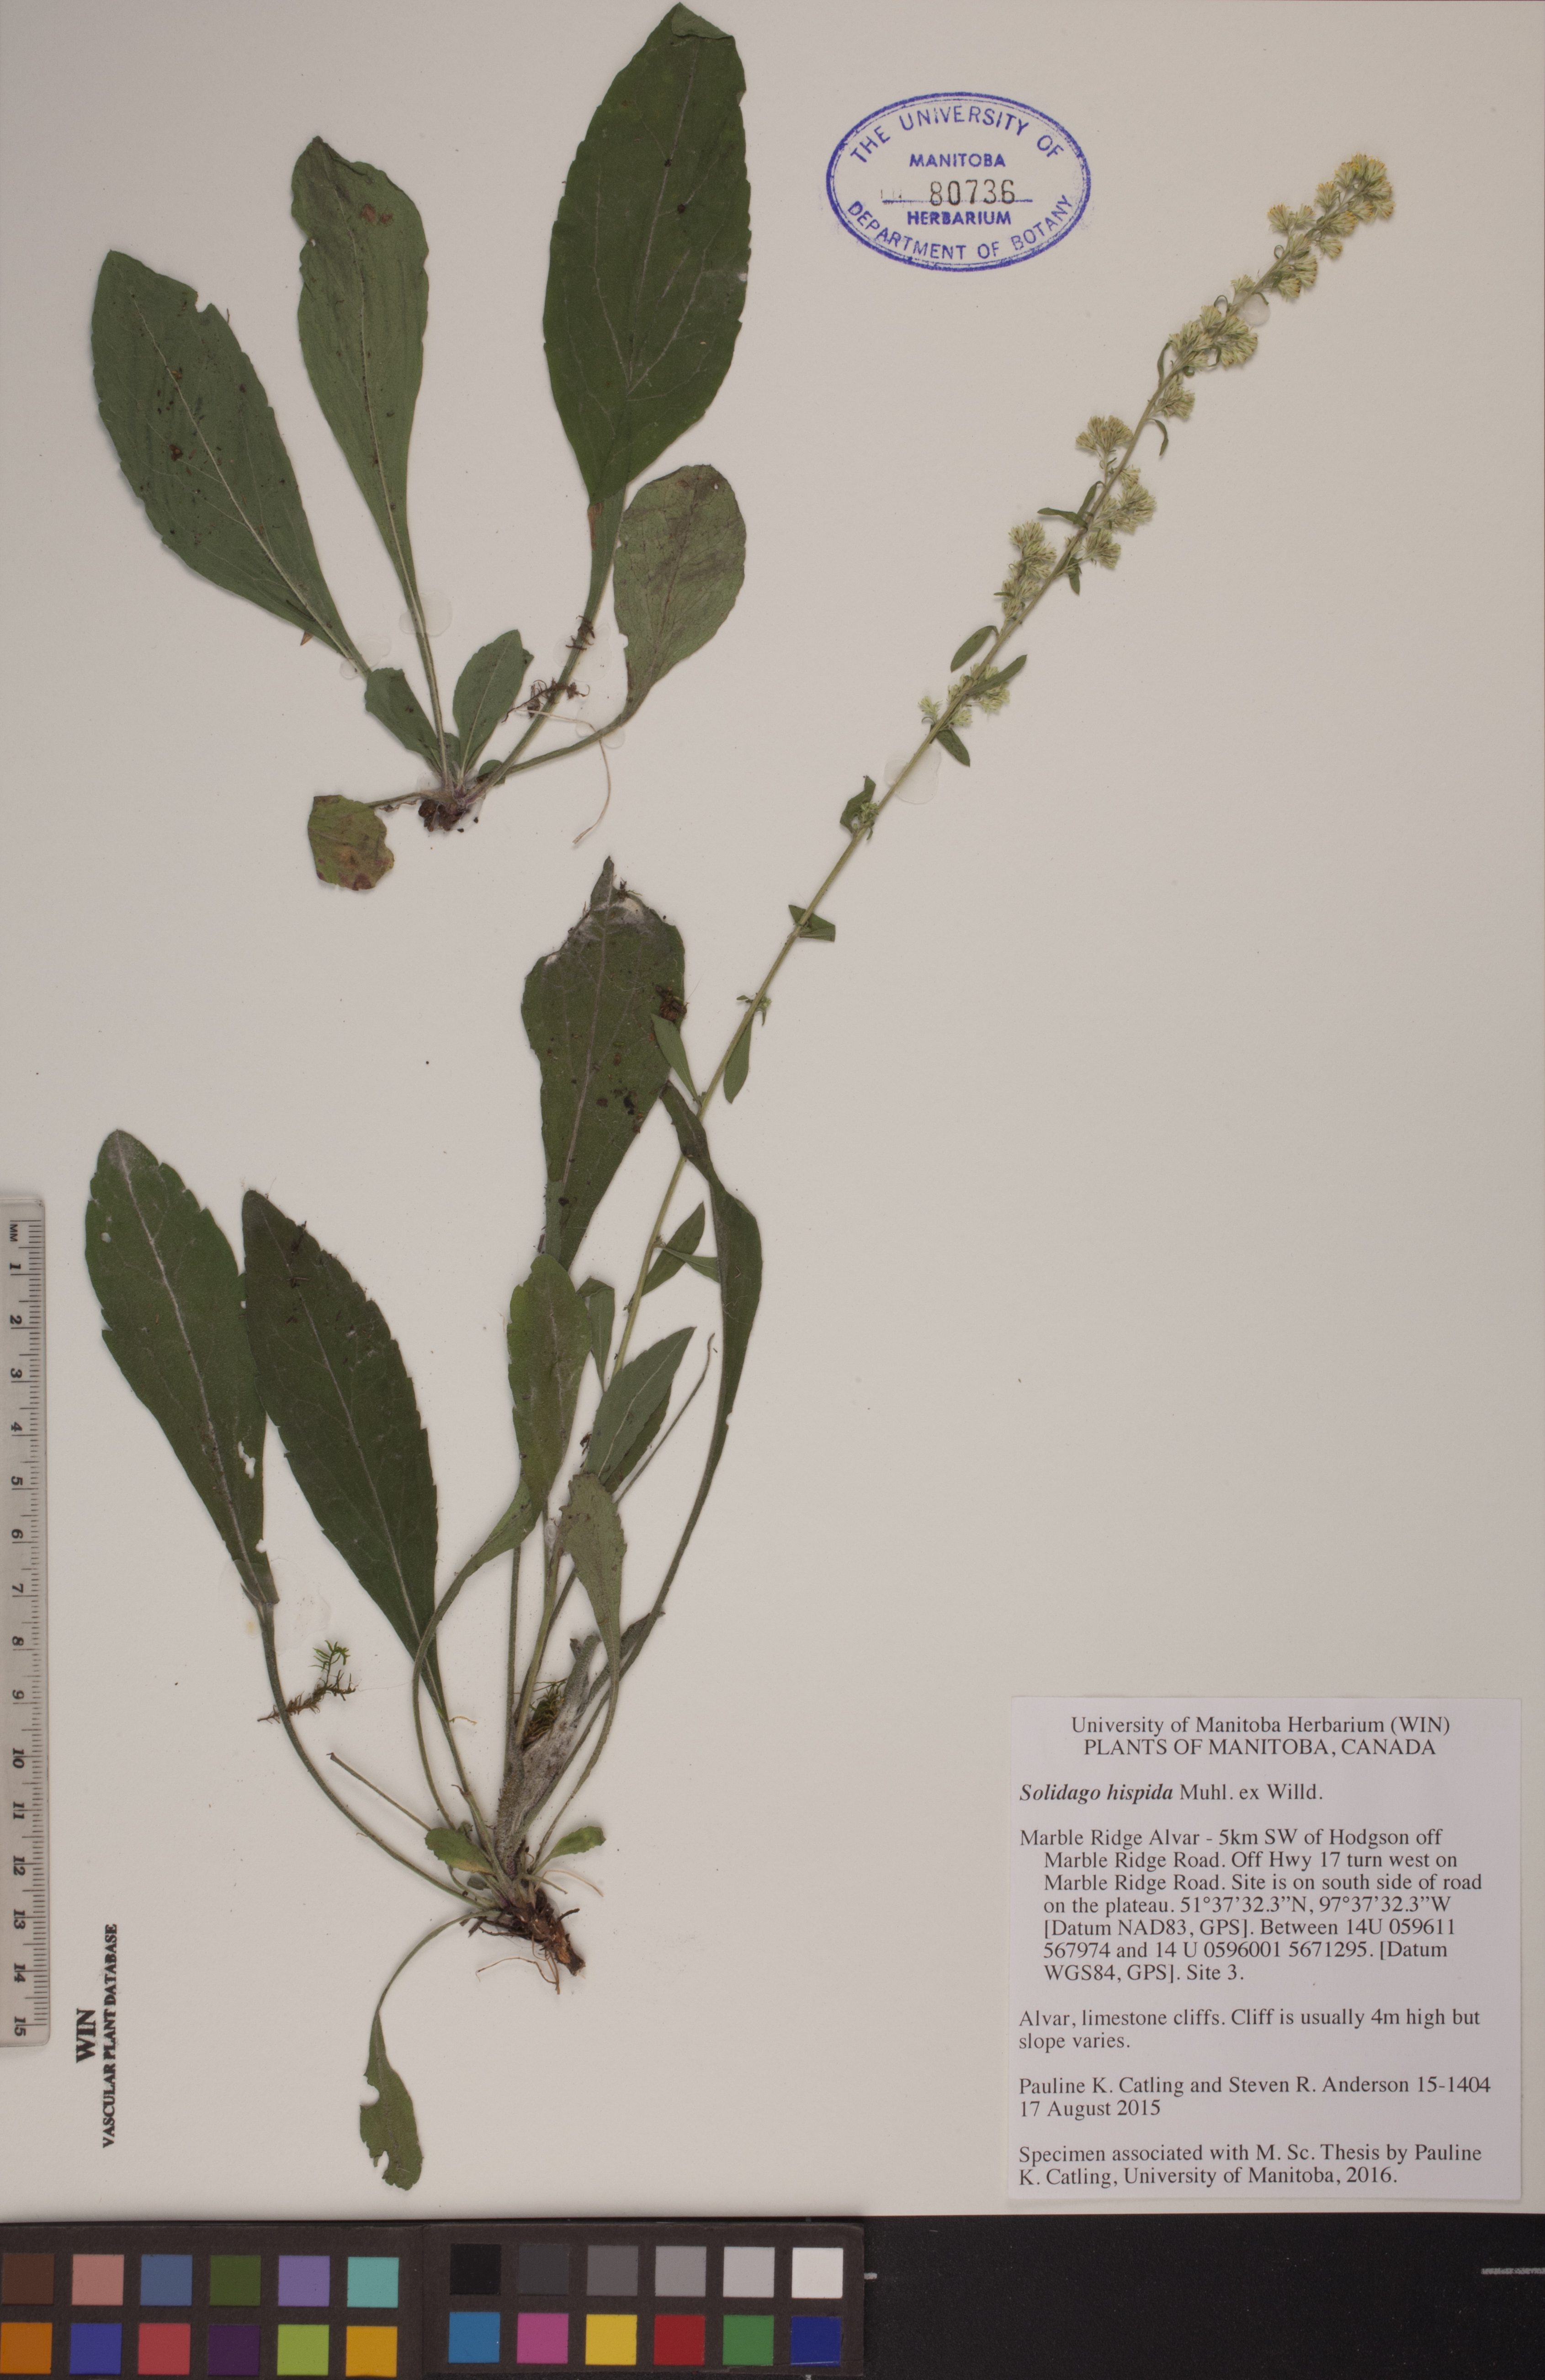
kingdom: Plantae
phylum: Tracheophyta
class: Magnoliopsida
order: Asterales
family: Asteraceae
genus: Solidago
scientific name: Solidago hispida
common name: Hairy goldenrod
